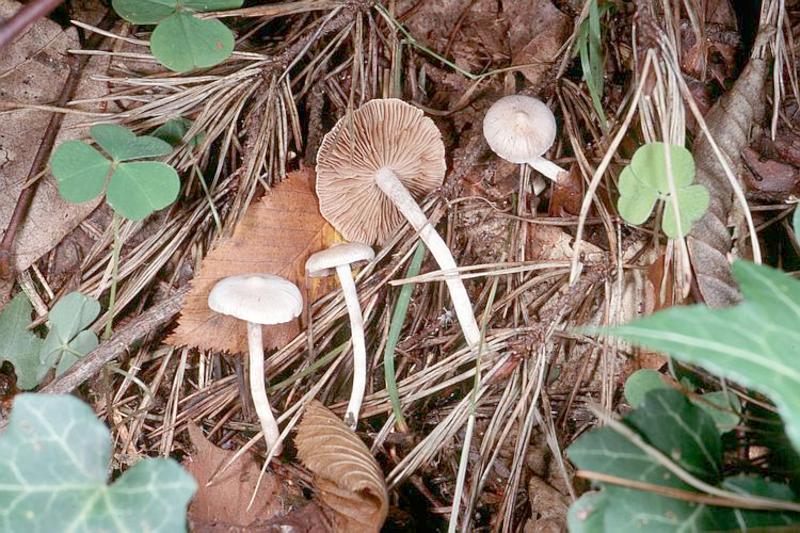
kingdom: Fungi
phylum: Basidiomycota
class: Agaricomycetes
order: Agaricales
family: Inocybaceae
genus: Inocybe
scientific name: Inocybe geophylla
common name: White fibrecap
